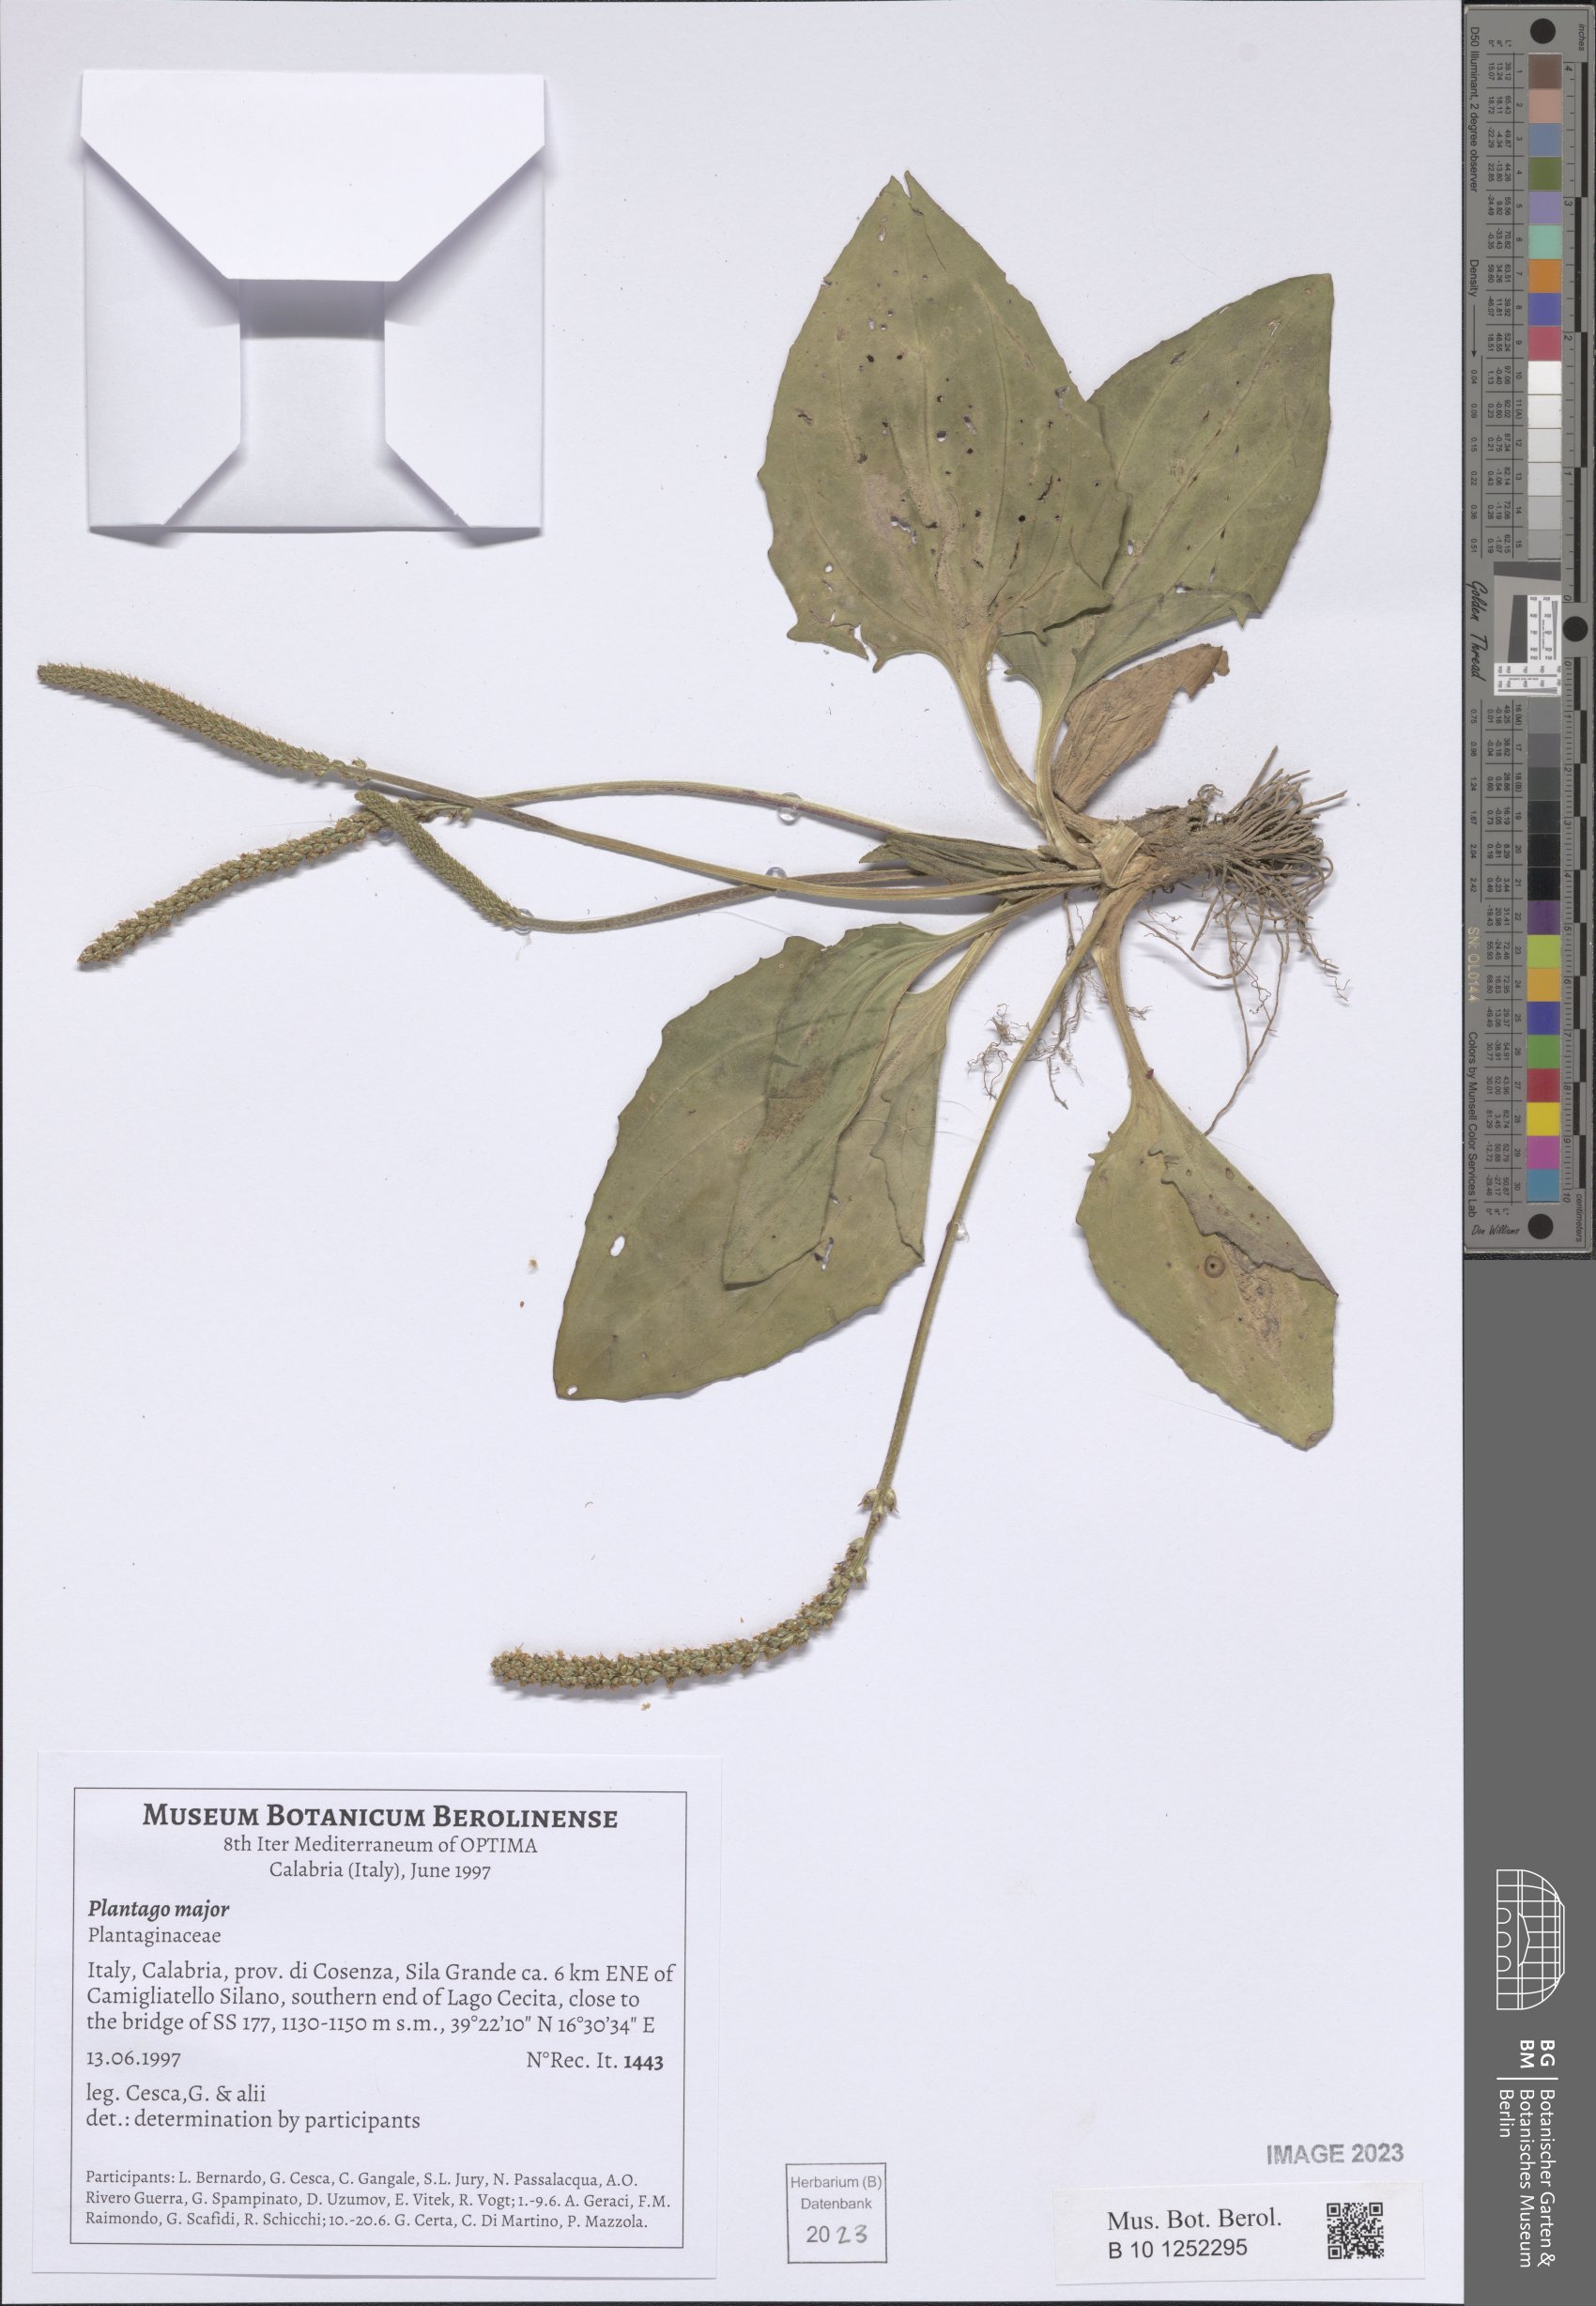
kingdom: Plantae
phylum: Tracheophyta
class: Magnoliopsida
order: Lamiales
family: Plantaginaceae
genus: Plantago
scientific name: Plantago major
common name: Common plantain
